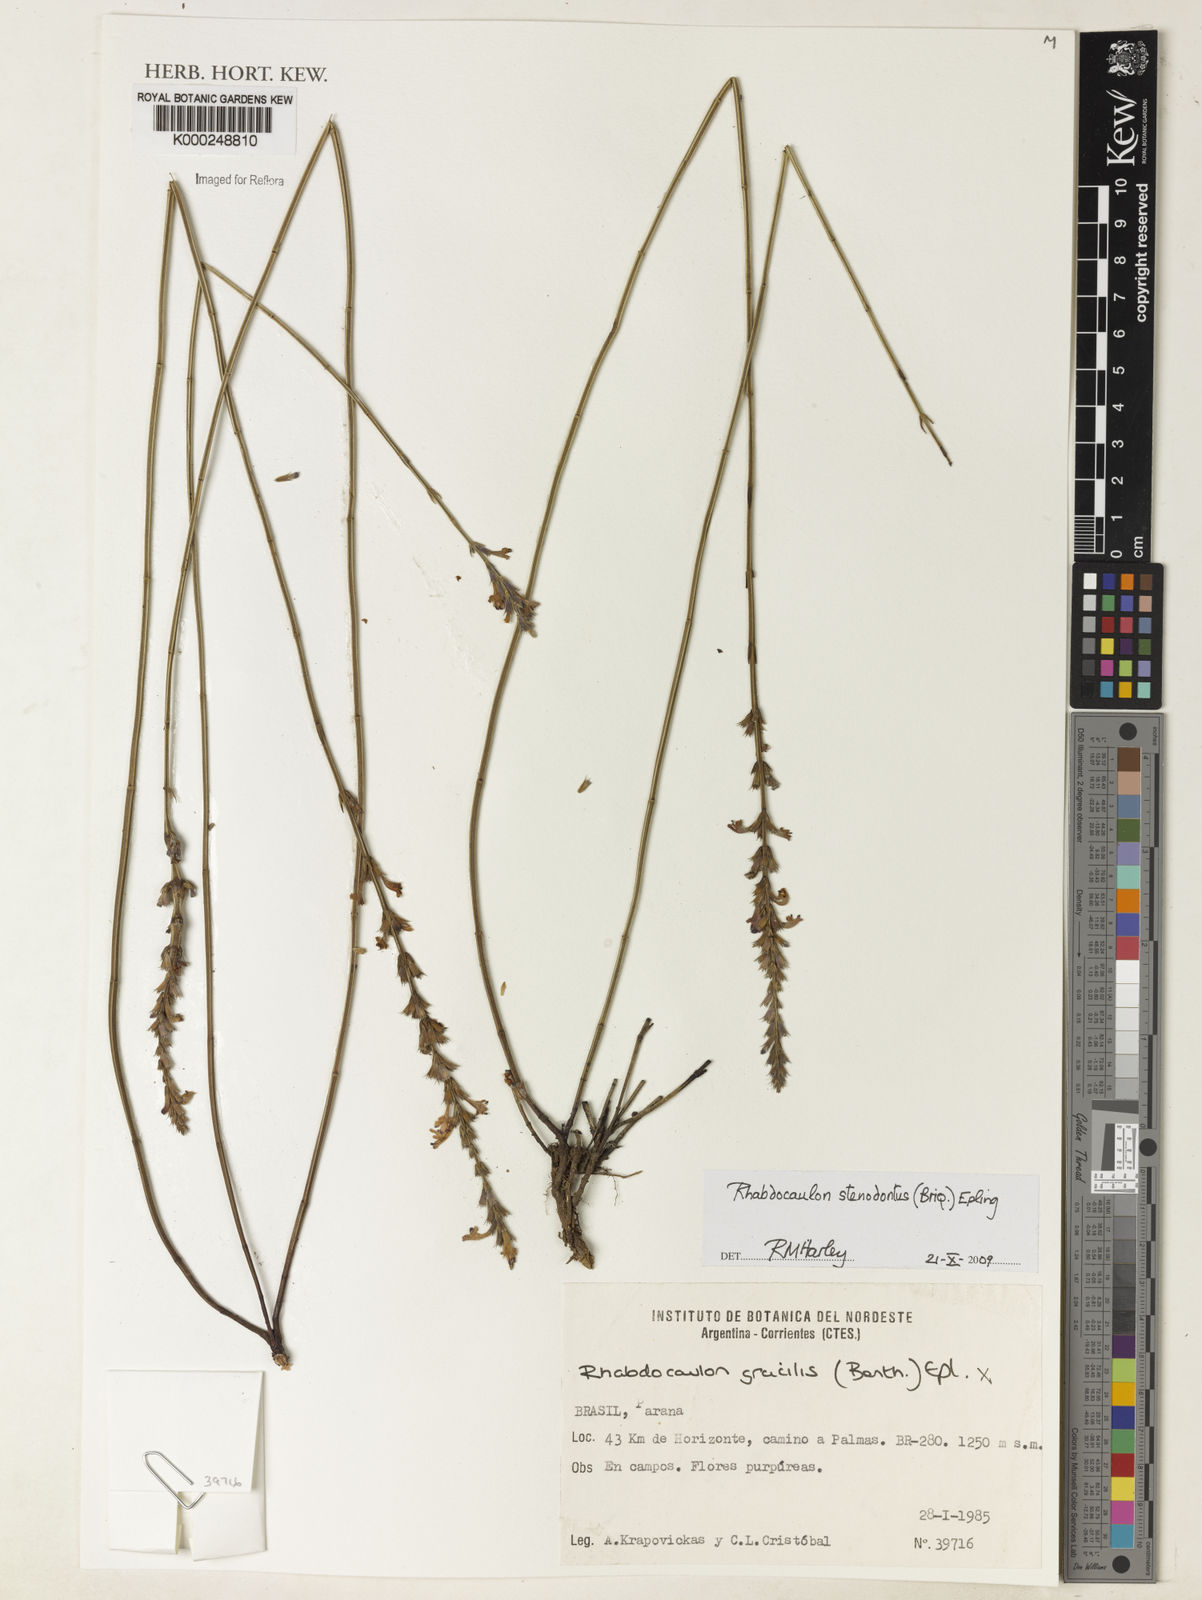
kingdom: Plantae
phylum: Tracheophyta
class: Magnoliopsida
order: Lamiales
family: Lamiaceae
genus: Rhabdocaulon
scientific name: Rhabdocaulon stenodontum
